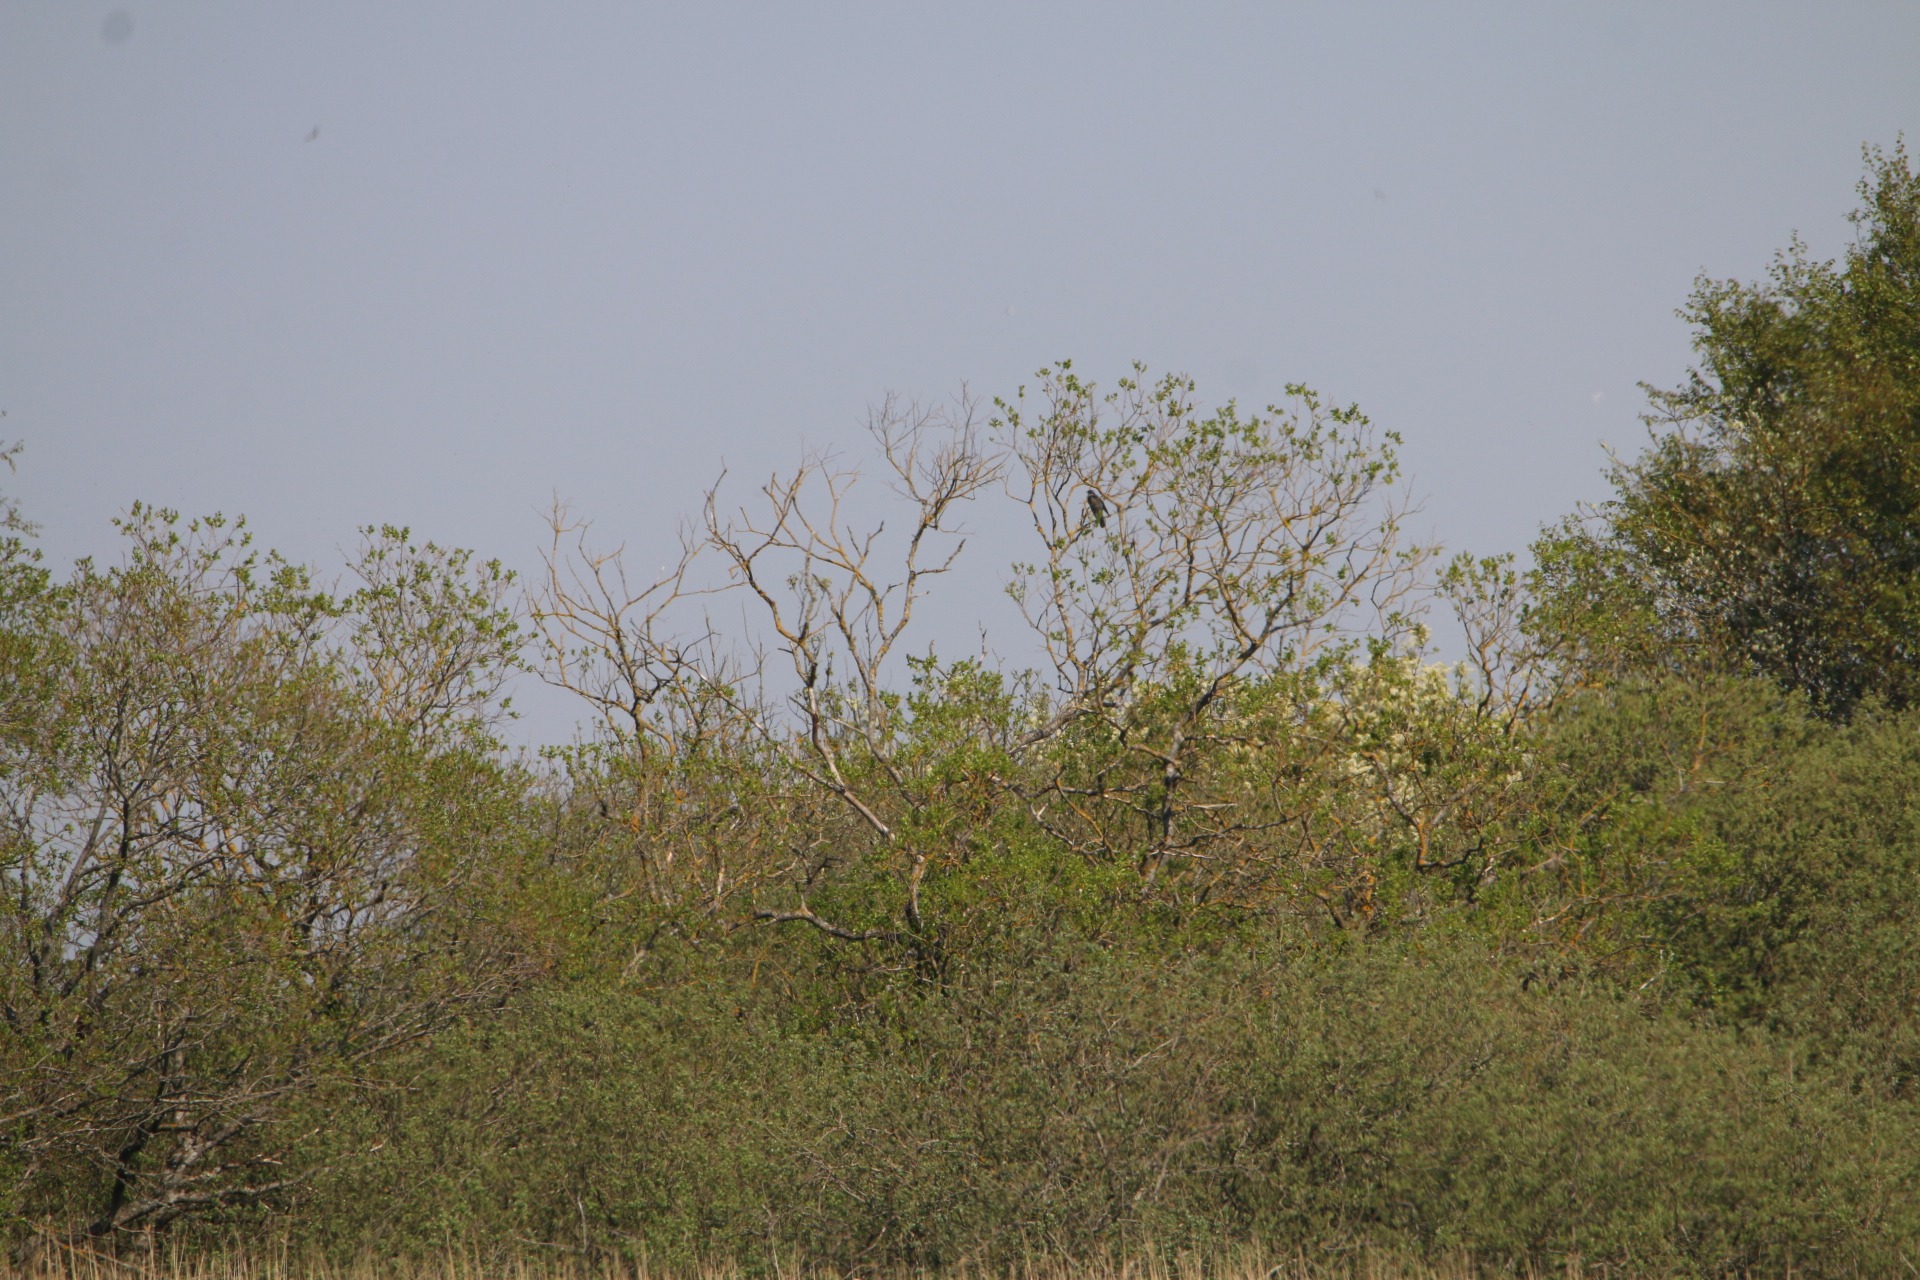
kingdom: Animalia
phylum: Chordata
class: Aves
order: Cuculiformes
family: Cuculidae
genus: Cuculus
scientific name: Cuculus canorus
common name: Gøg
